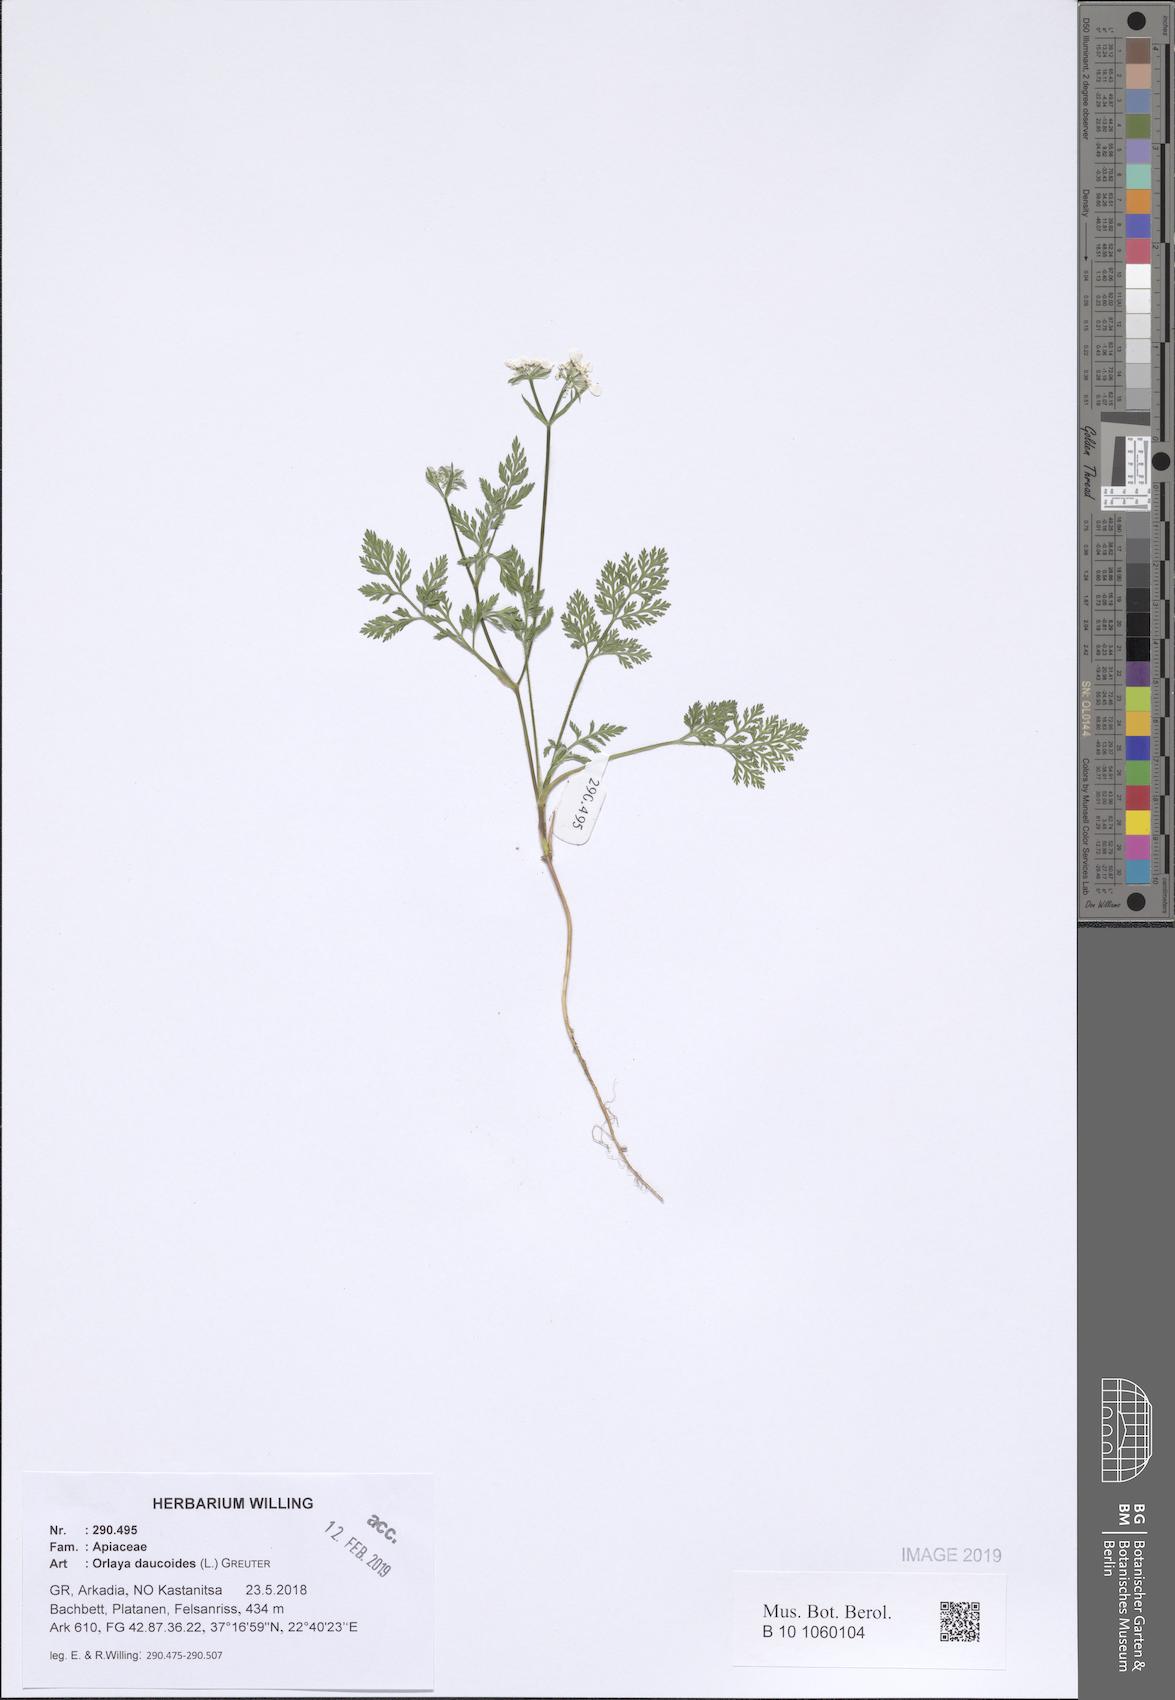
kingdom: Plantae
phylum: Tracheophyta
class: Magnoliopsida
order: Apiales
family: Apiaceae
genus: Orlaya
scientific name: Orlaya daucoides
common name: Flat-fruit orlaya
